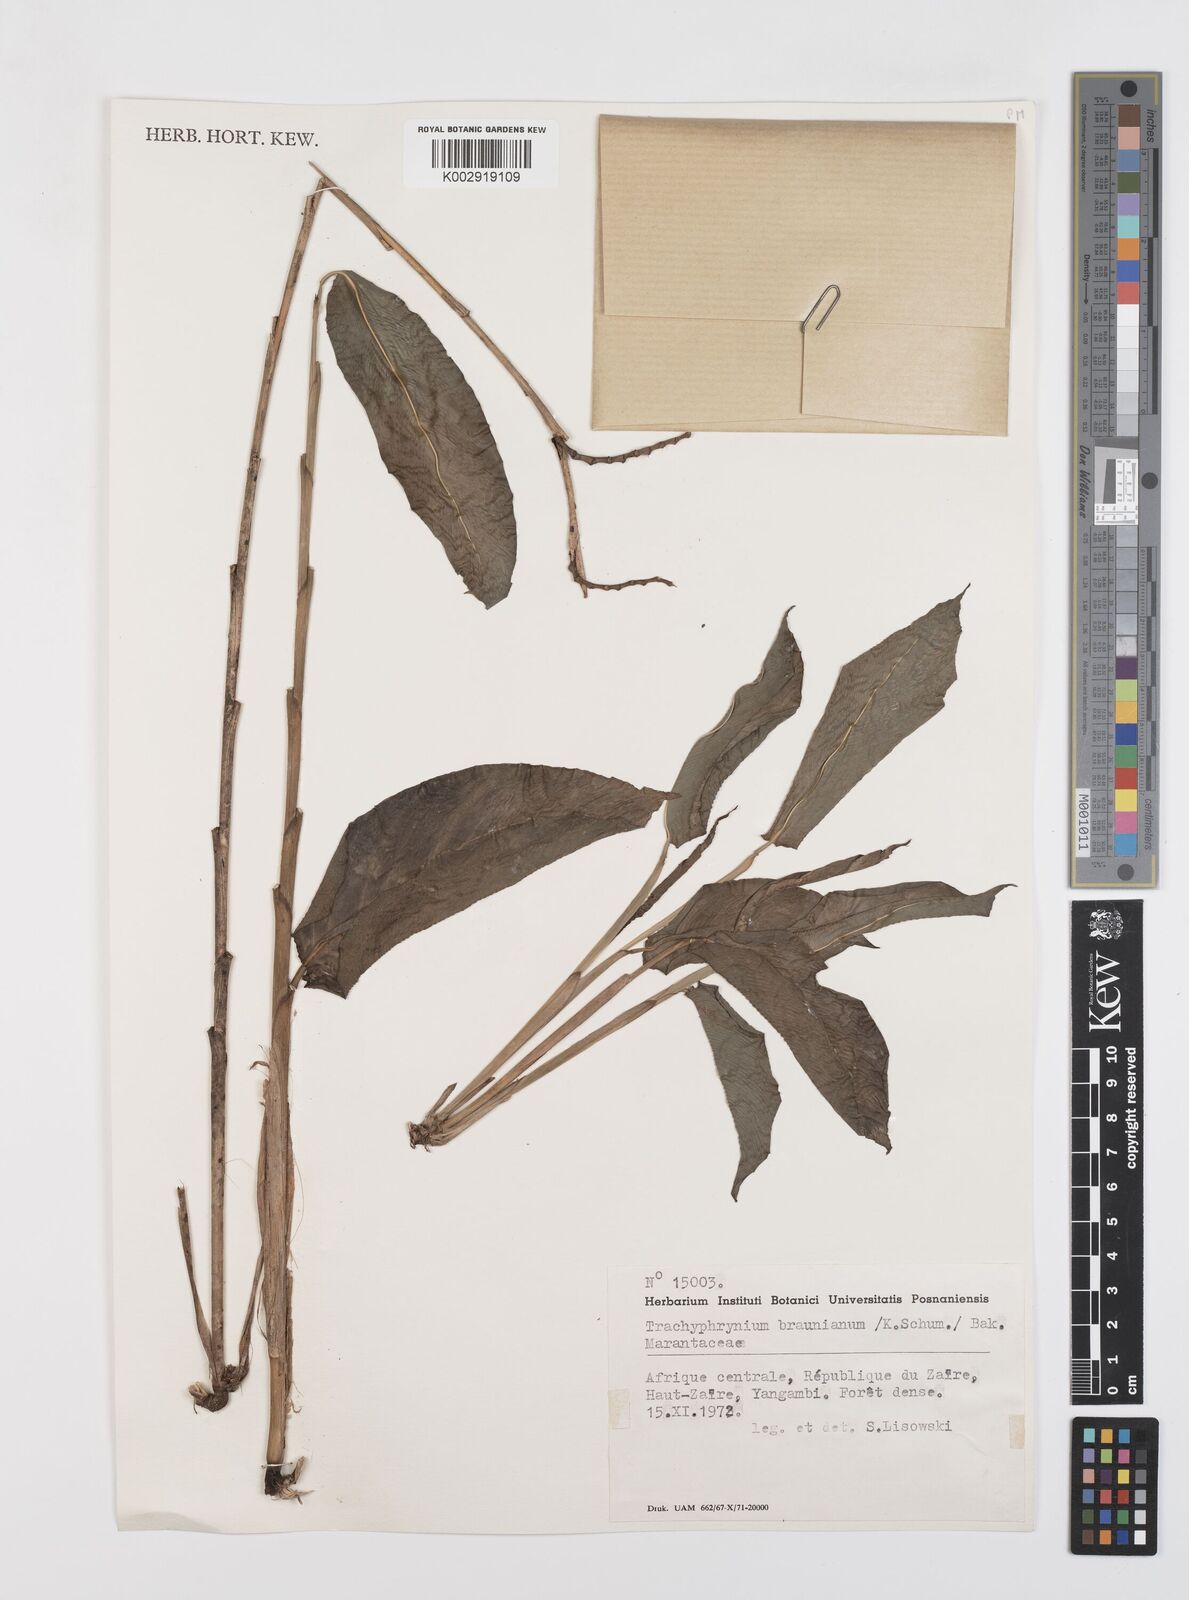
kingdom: Plantae
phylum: Tracheophyta
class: Liliopsida
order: Zingiberales
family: Marantaceae
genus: Trachyphrynium
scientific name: Trachyphrynium braunianum
